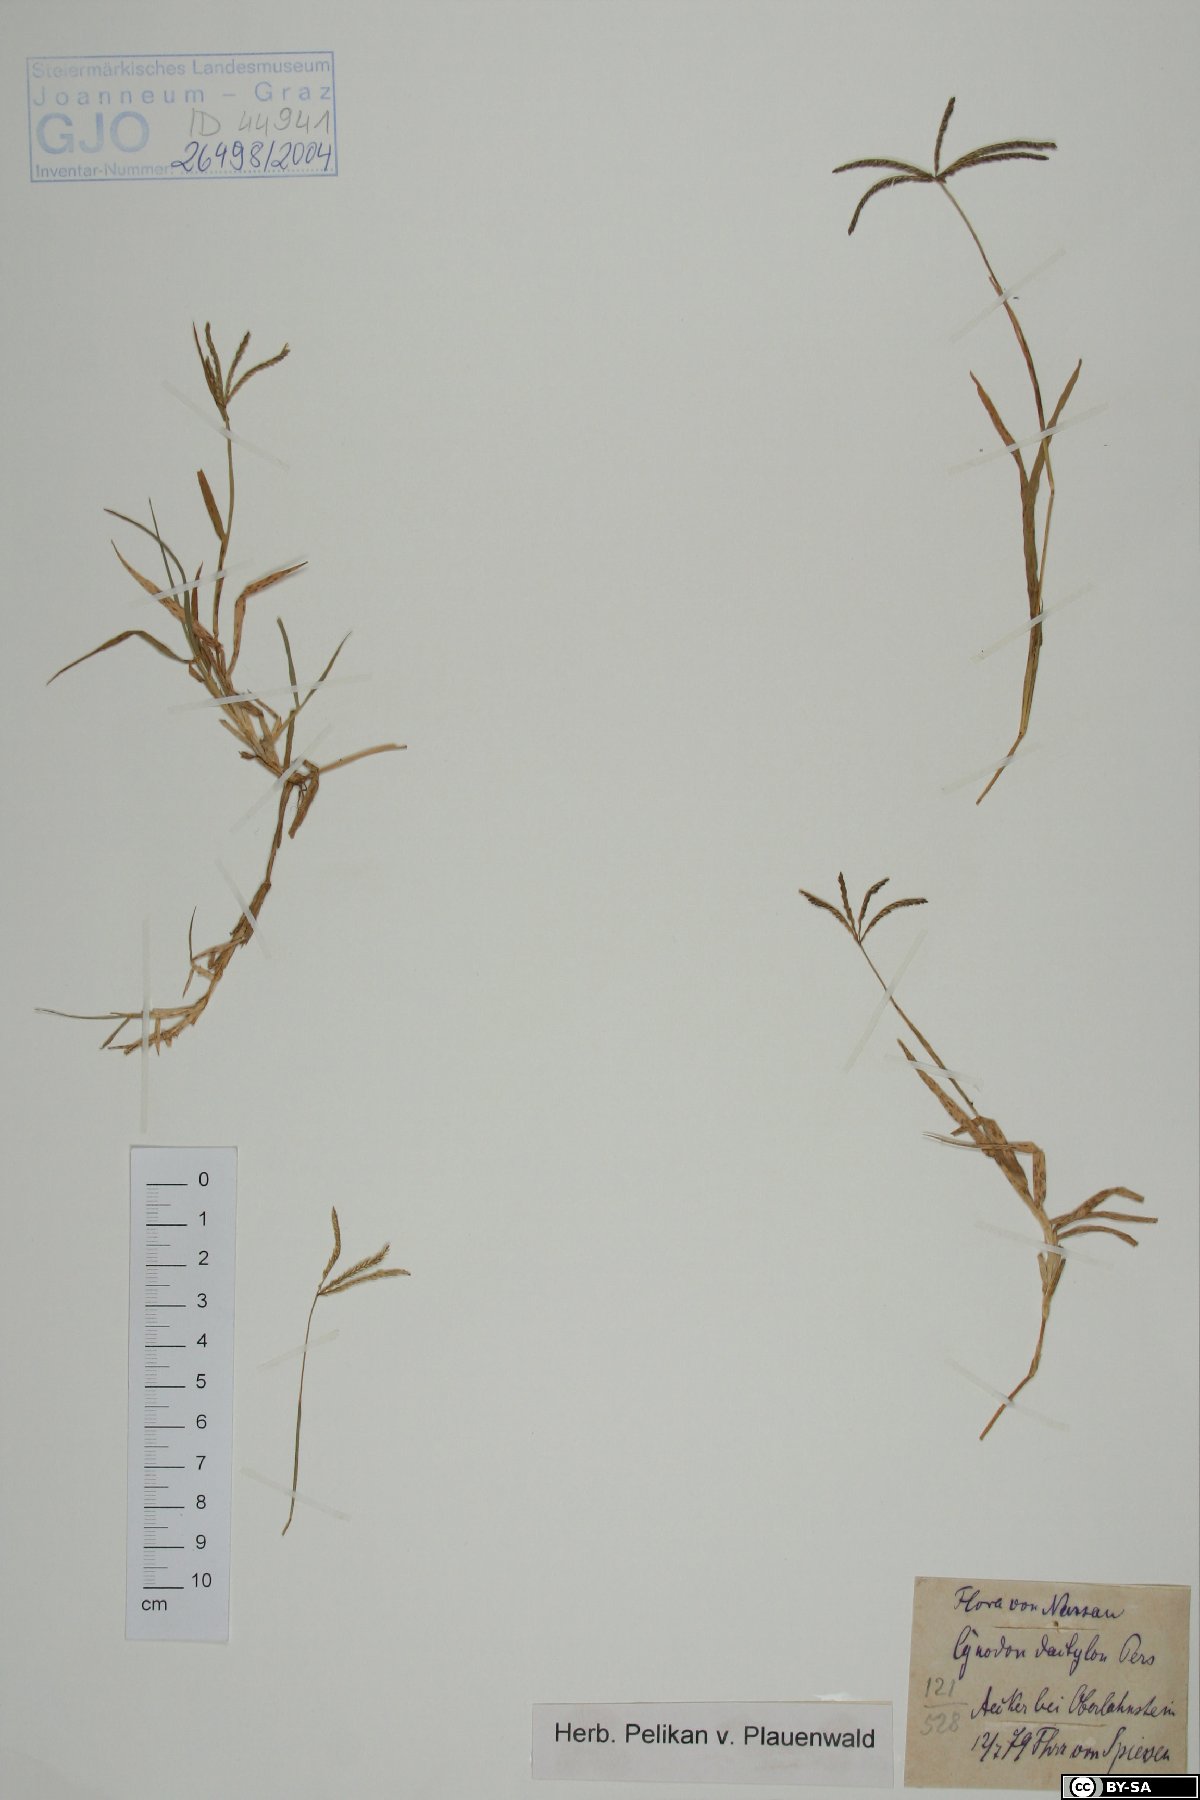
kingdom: Plantae
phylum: Tracheophyta
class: Liliopsida
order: Poales
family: Poaceae
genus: Cynodon
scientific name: Cynodon dactylon
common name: Bermuda grass
